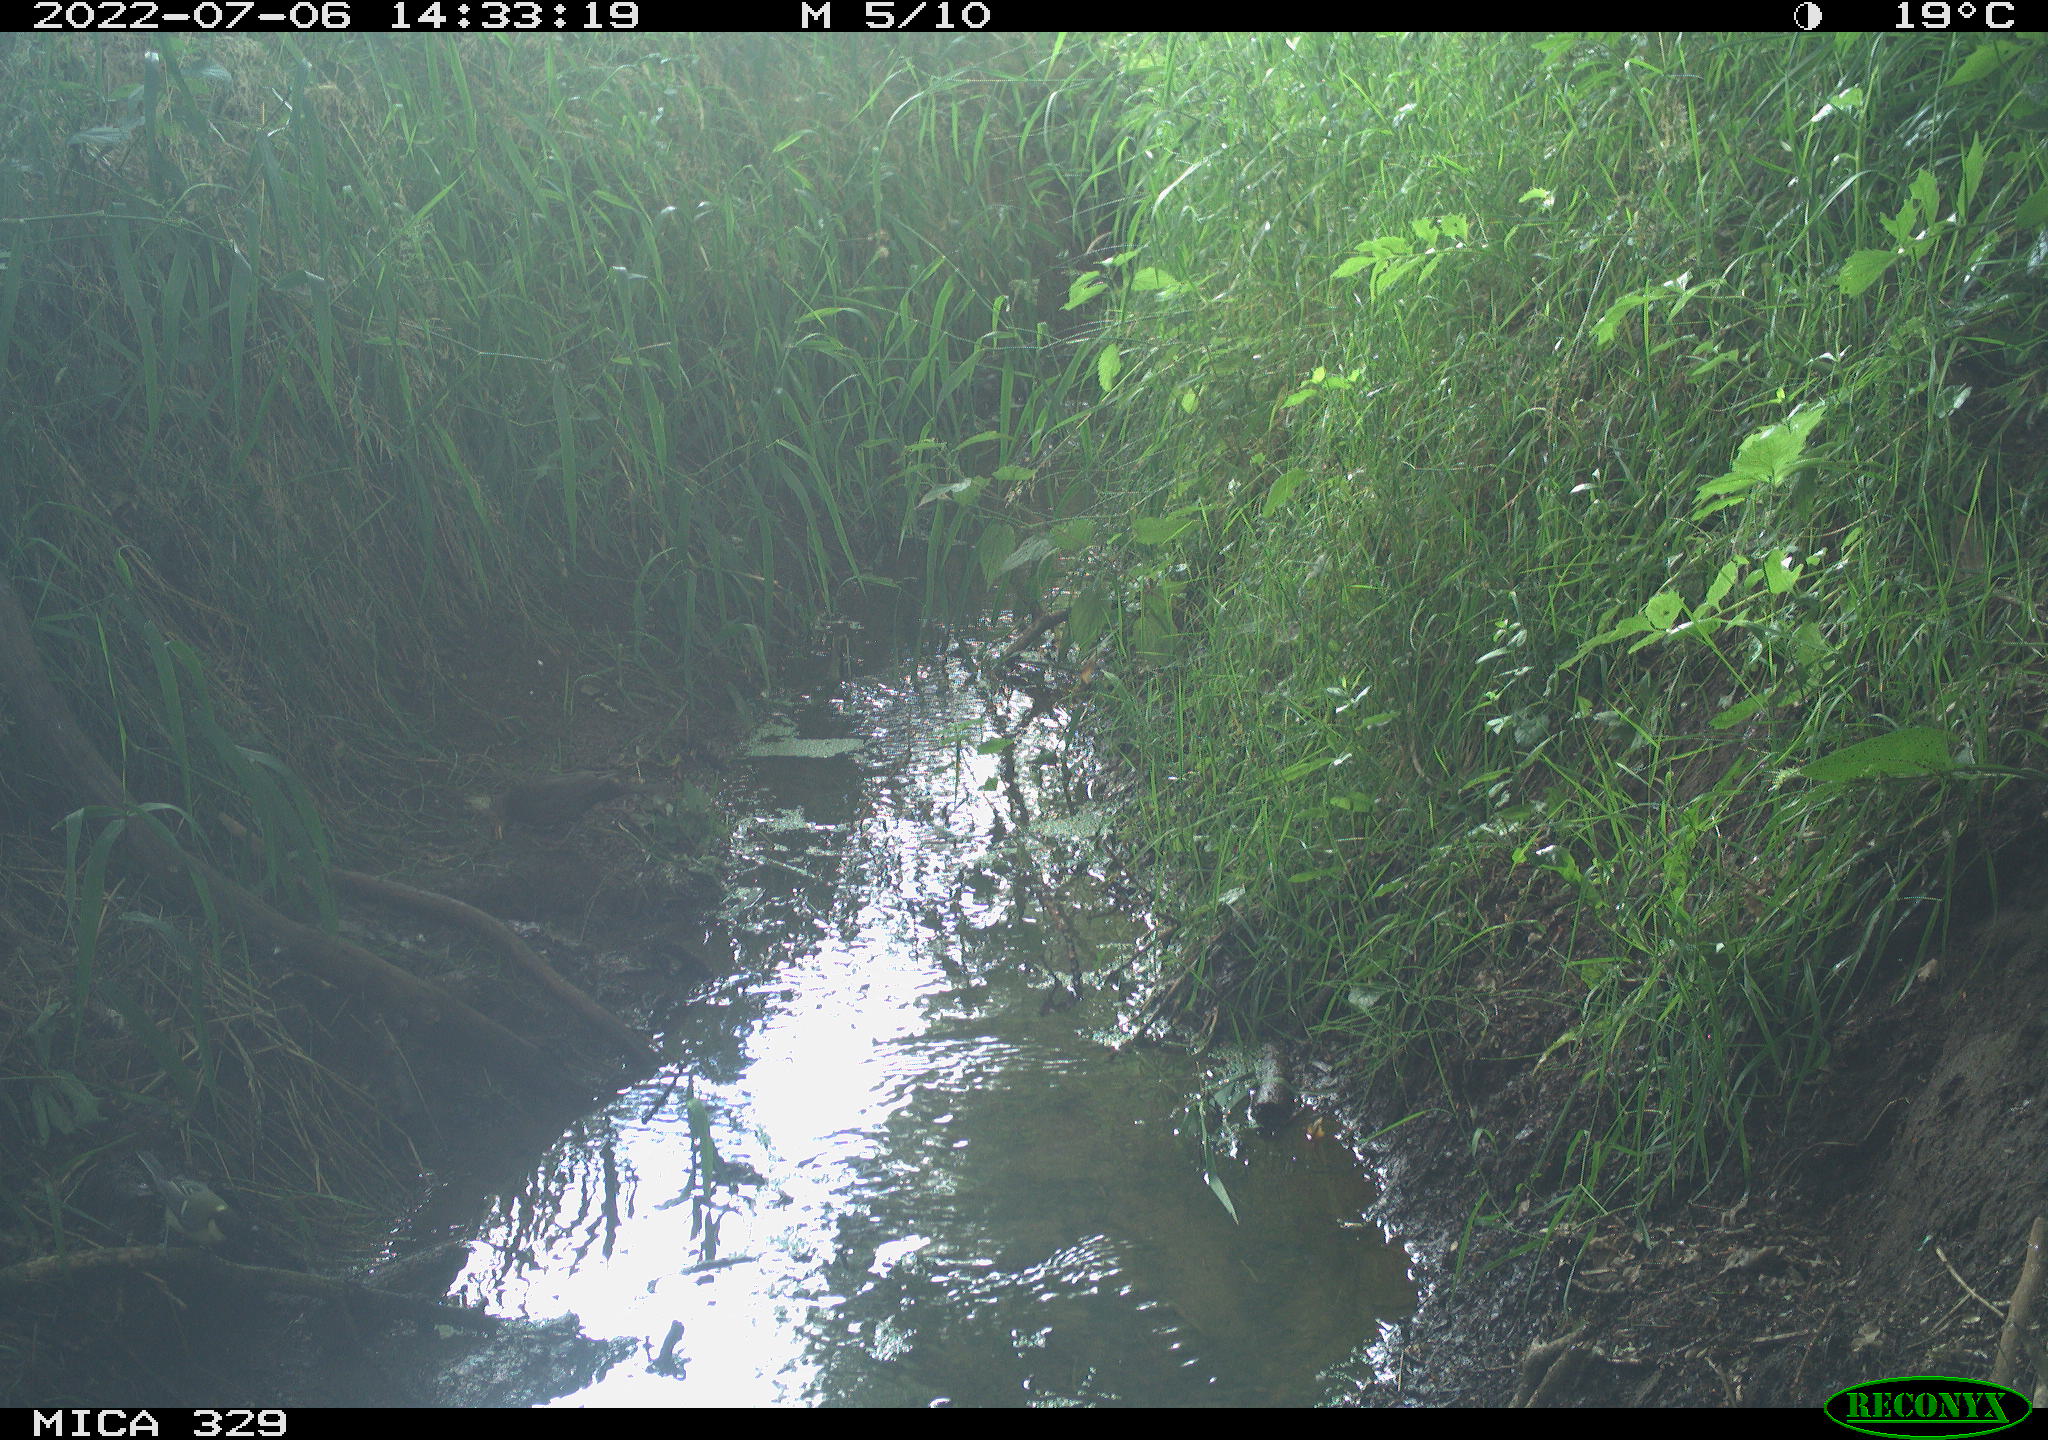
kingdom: Animalia
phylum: Chordata
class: Aves
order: Passeriformes
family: Turdidae
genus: Turdus
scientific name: Turdus merula
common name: Common blackbird
